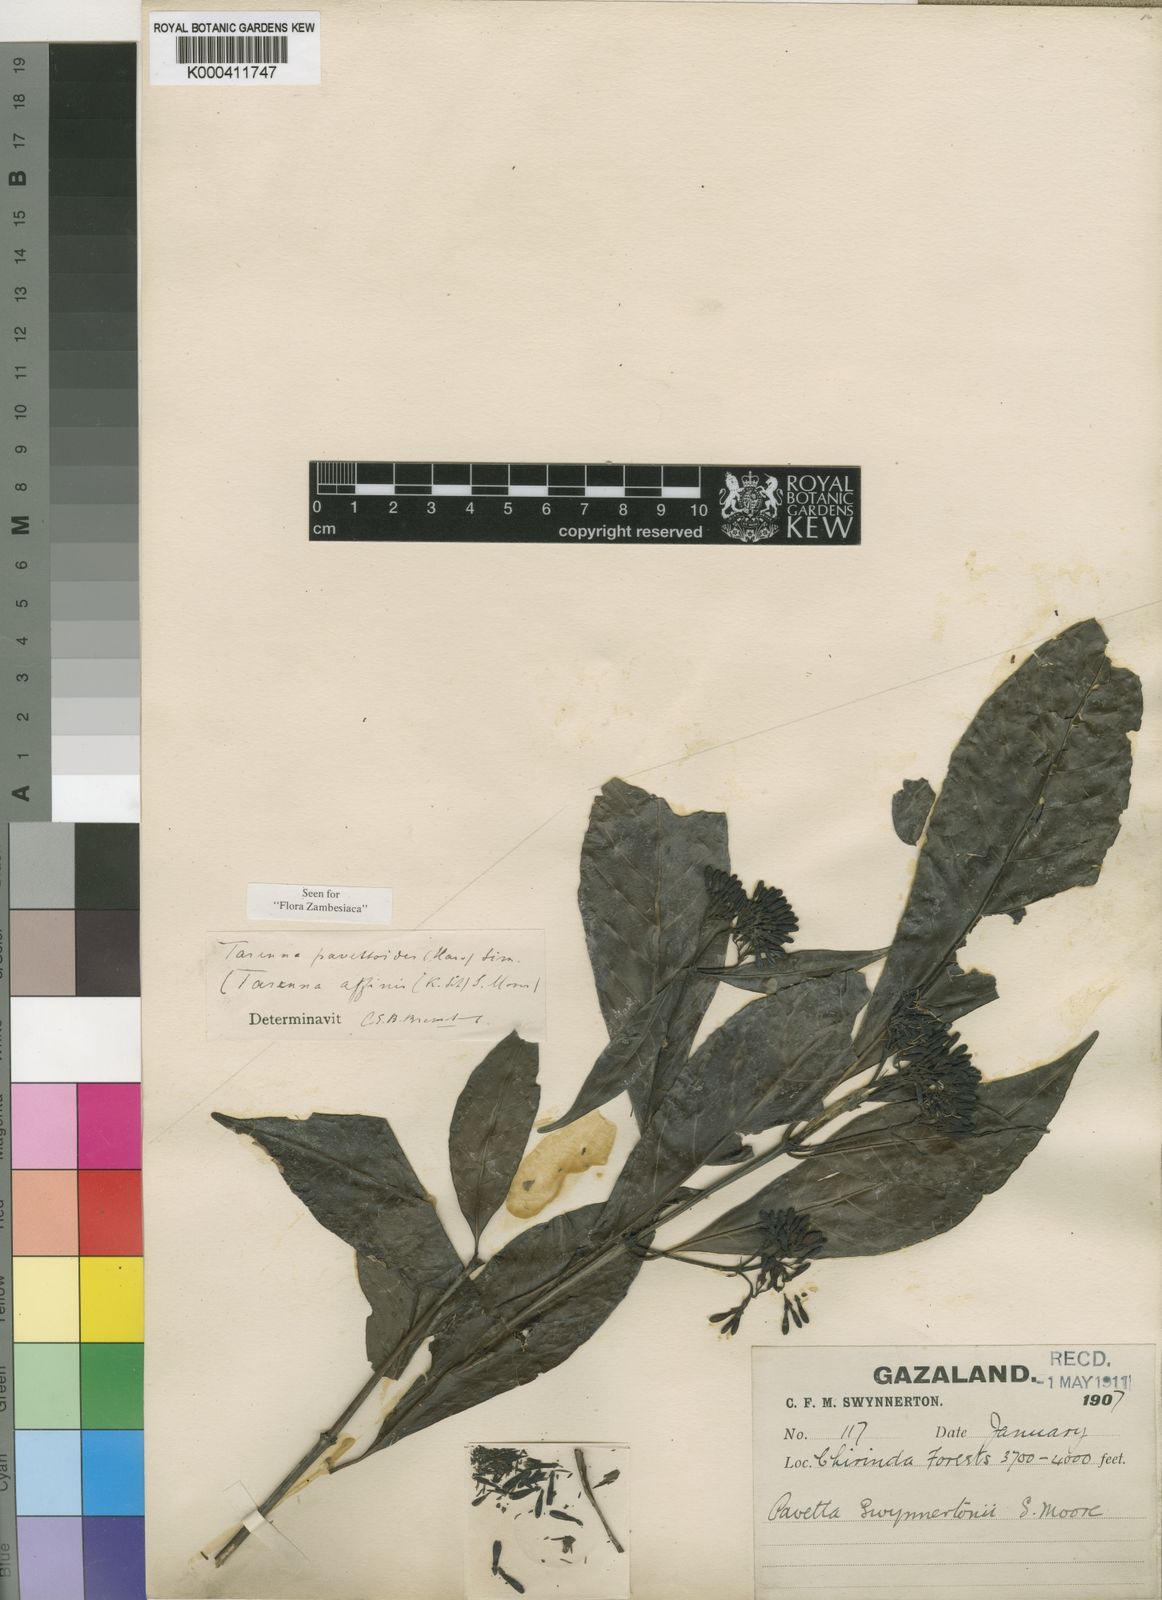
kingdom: Plantae
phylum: Tracheophyta
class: Magnoliopsida
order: Gentianales
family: Rubiaceae
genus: Tarenna
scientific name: Tarenna pavettoides
